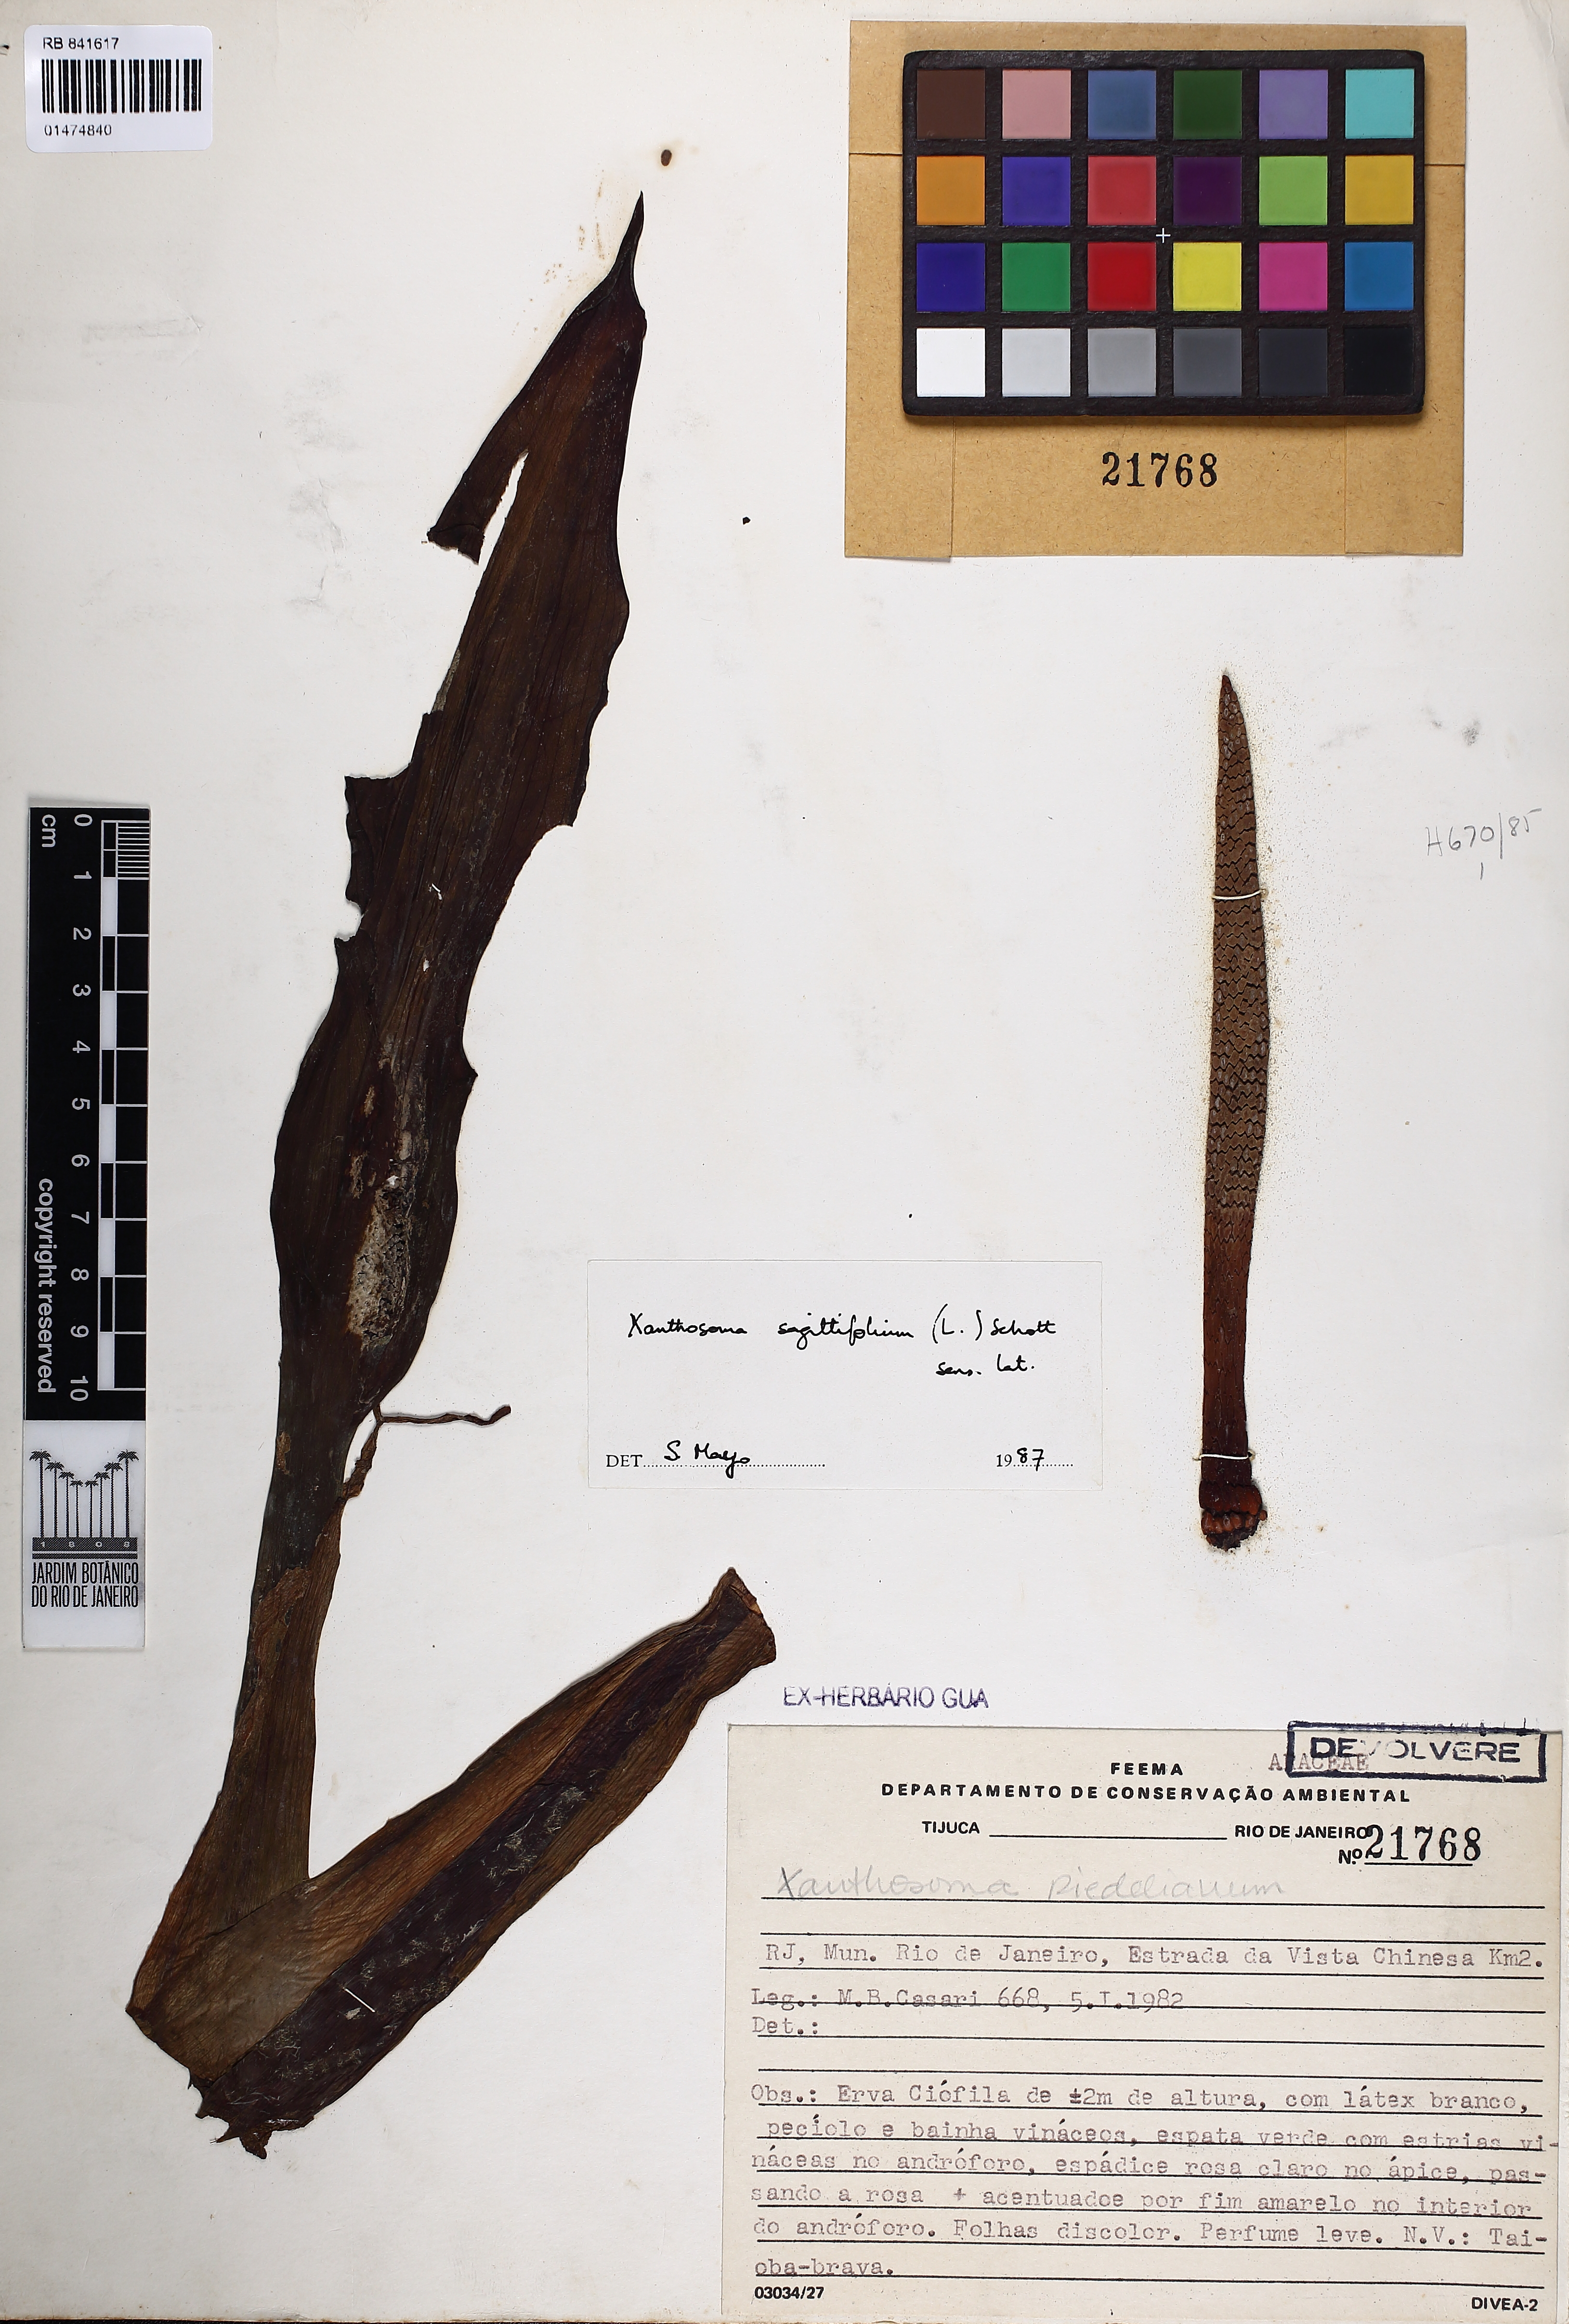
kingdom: Plantae
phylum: Tracheophyta
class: Liliopsida
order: Alismatales
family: Araceae
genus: Xanthosoma
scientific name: Xanthosoma sagittifolium
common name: Arrowleaf elephant's ear
